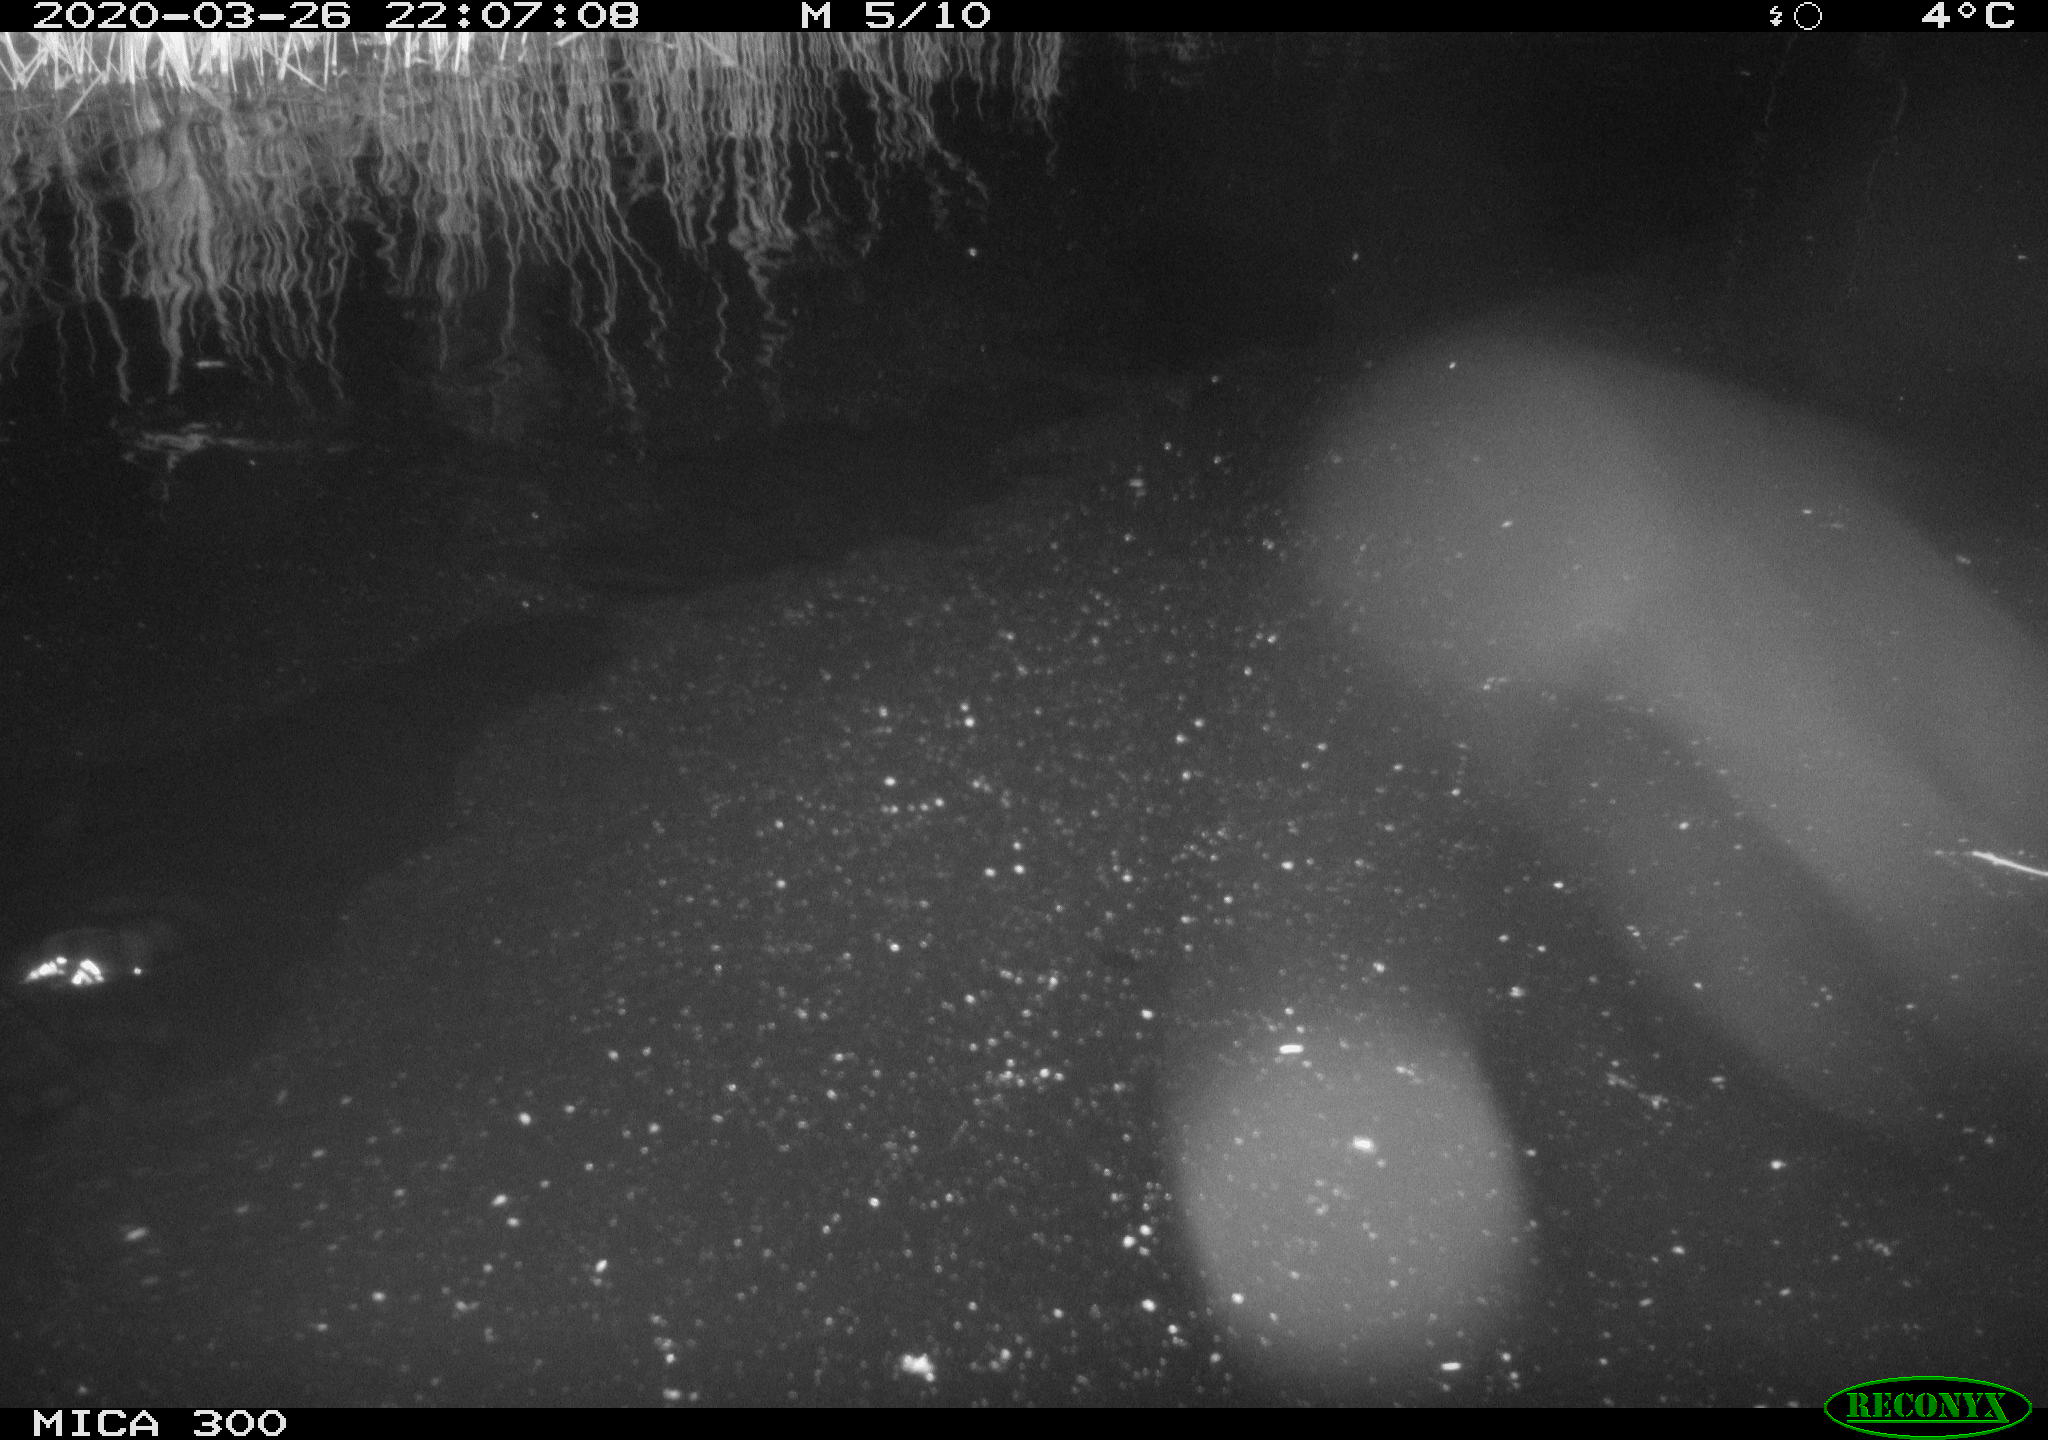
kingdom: Animalia
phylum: Chordata
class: Mammalia
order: Rodentia
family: Castoridae
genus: Castor
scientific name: Castor fiber
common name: Eurasian beaver
